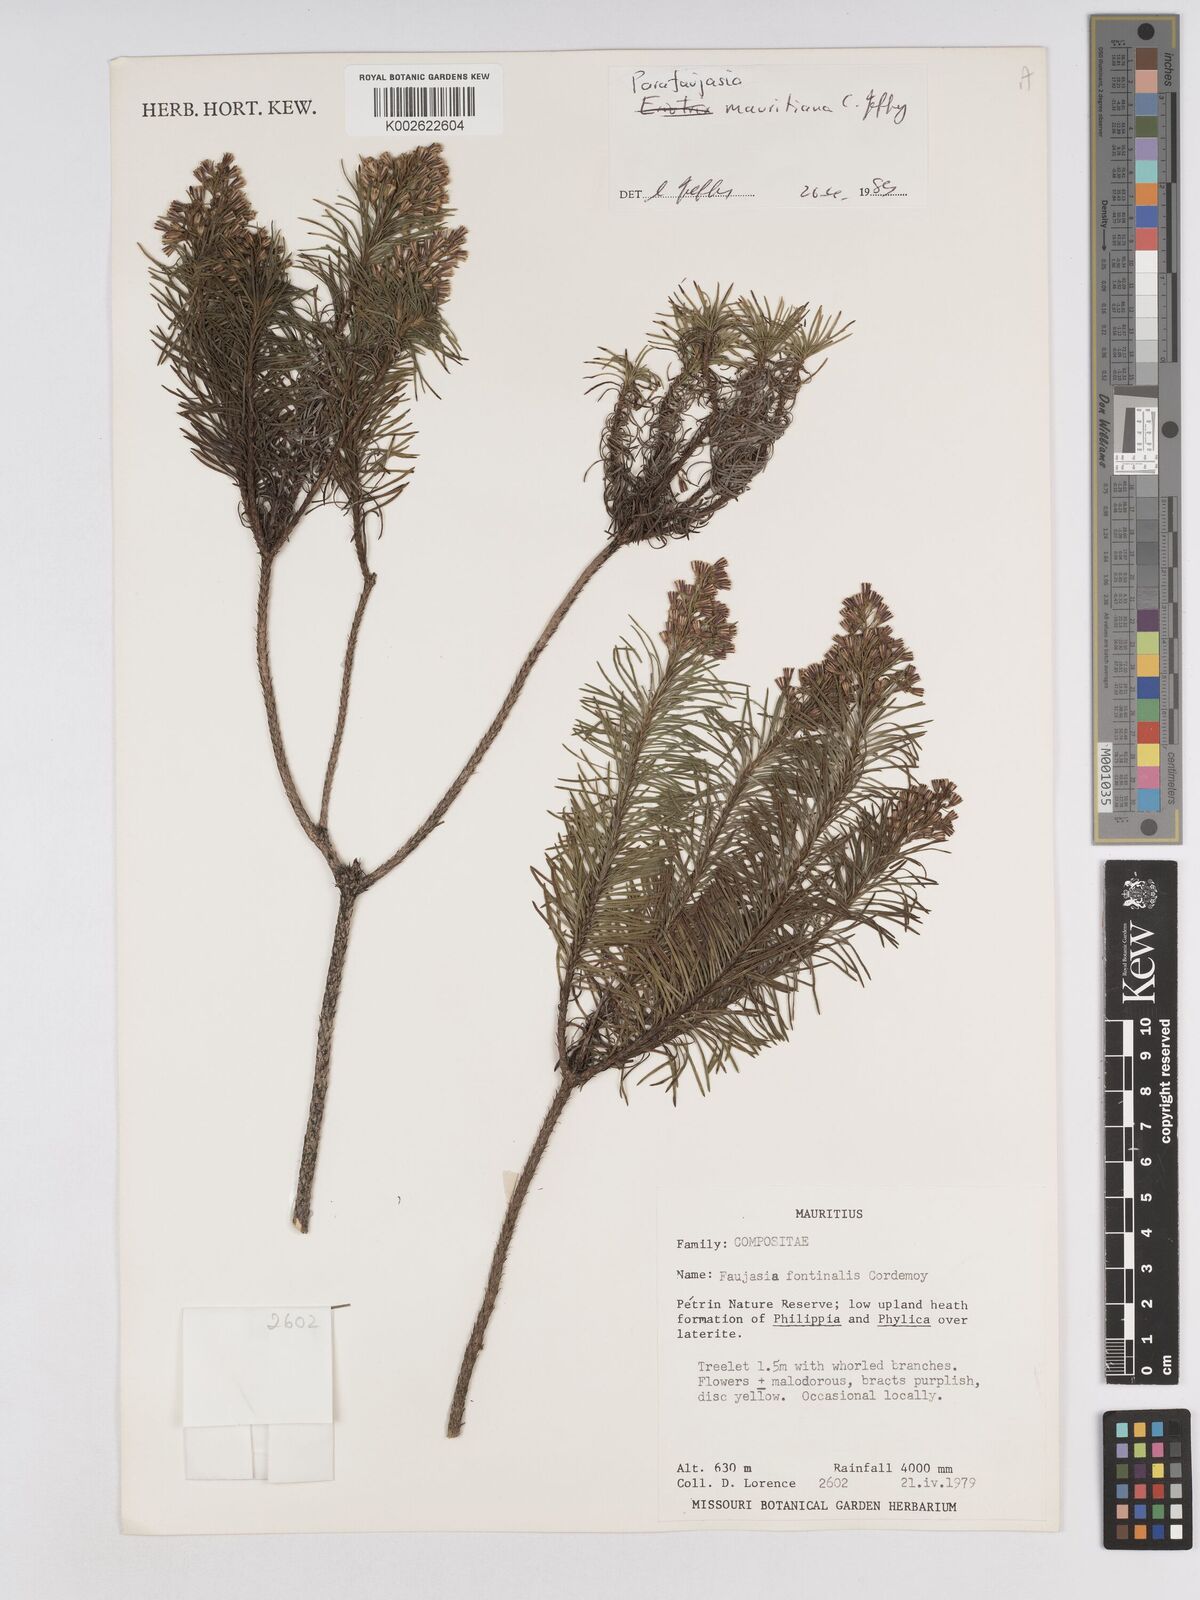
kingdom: Plantae
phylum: Tracheophyta
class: Magnoliopsida
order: Asterales
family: Asteraceae
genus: Parafaujasia
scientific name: Parafaujasia mauritiana
